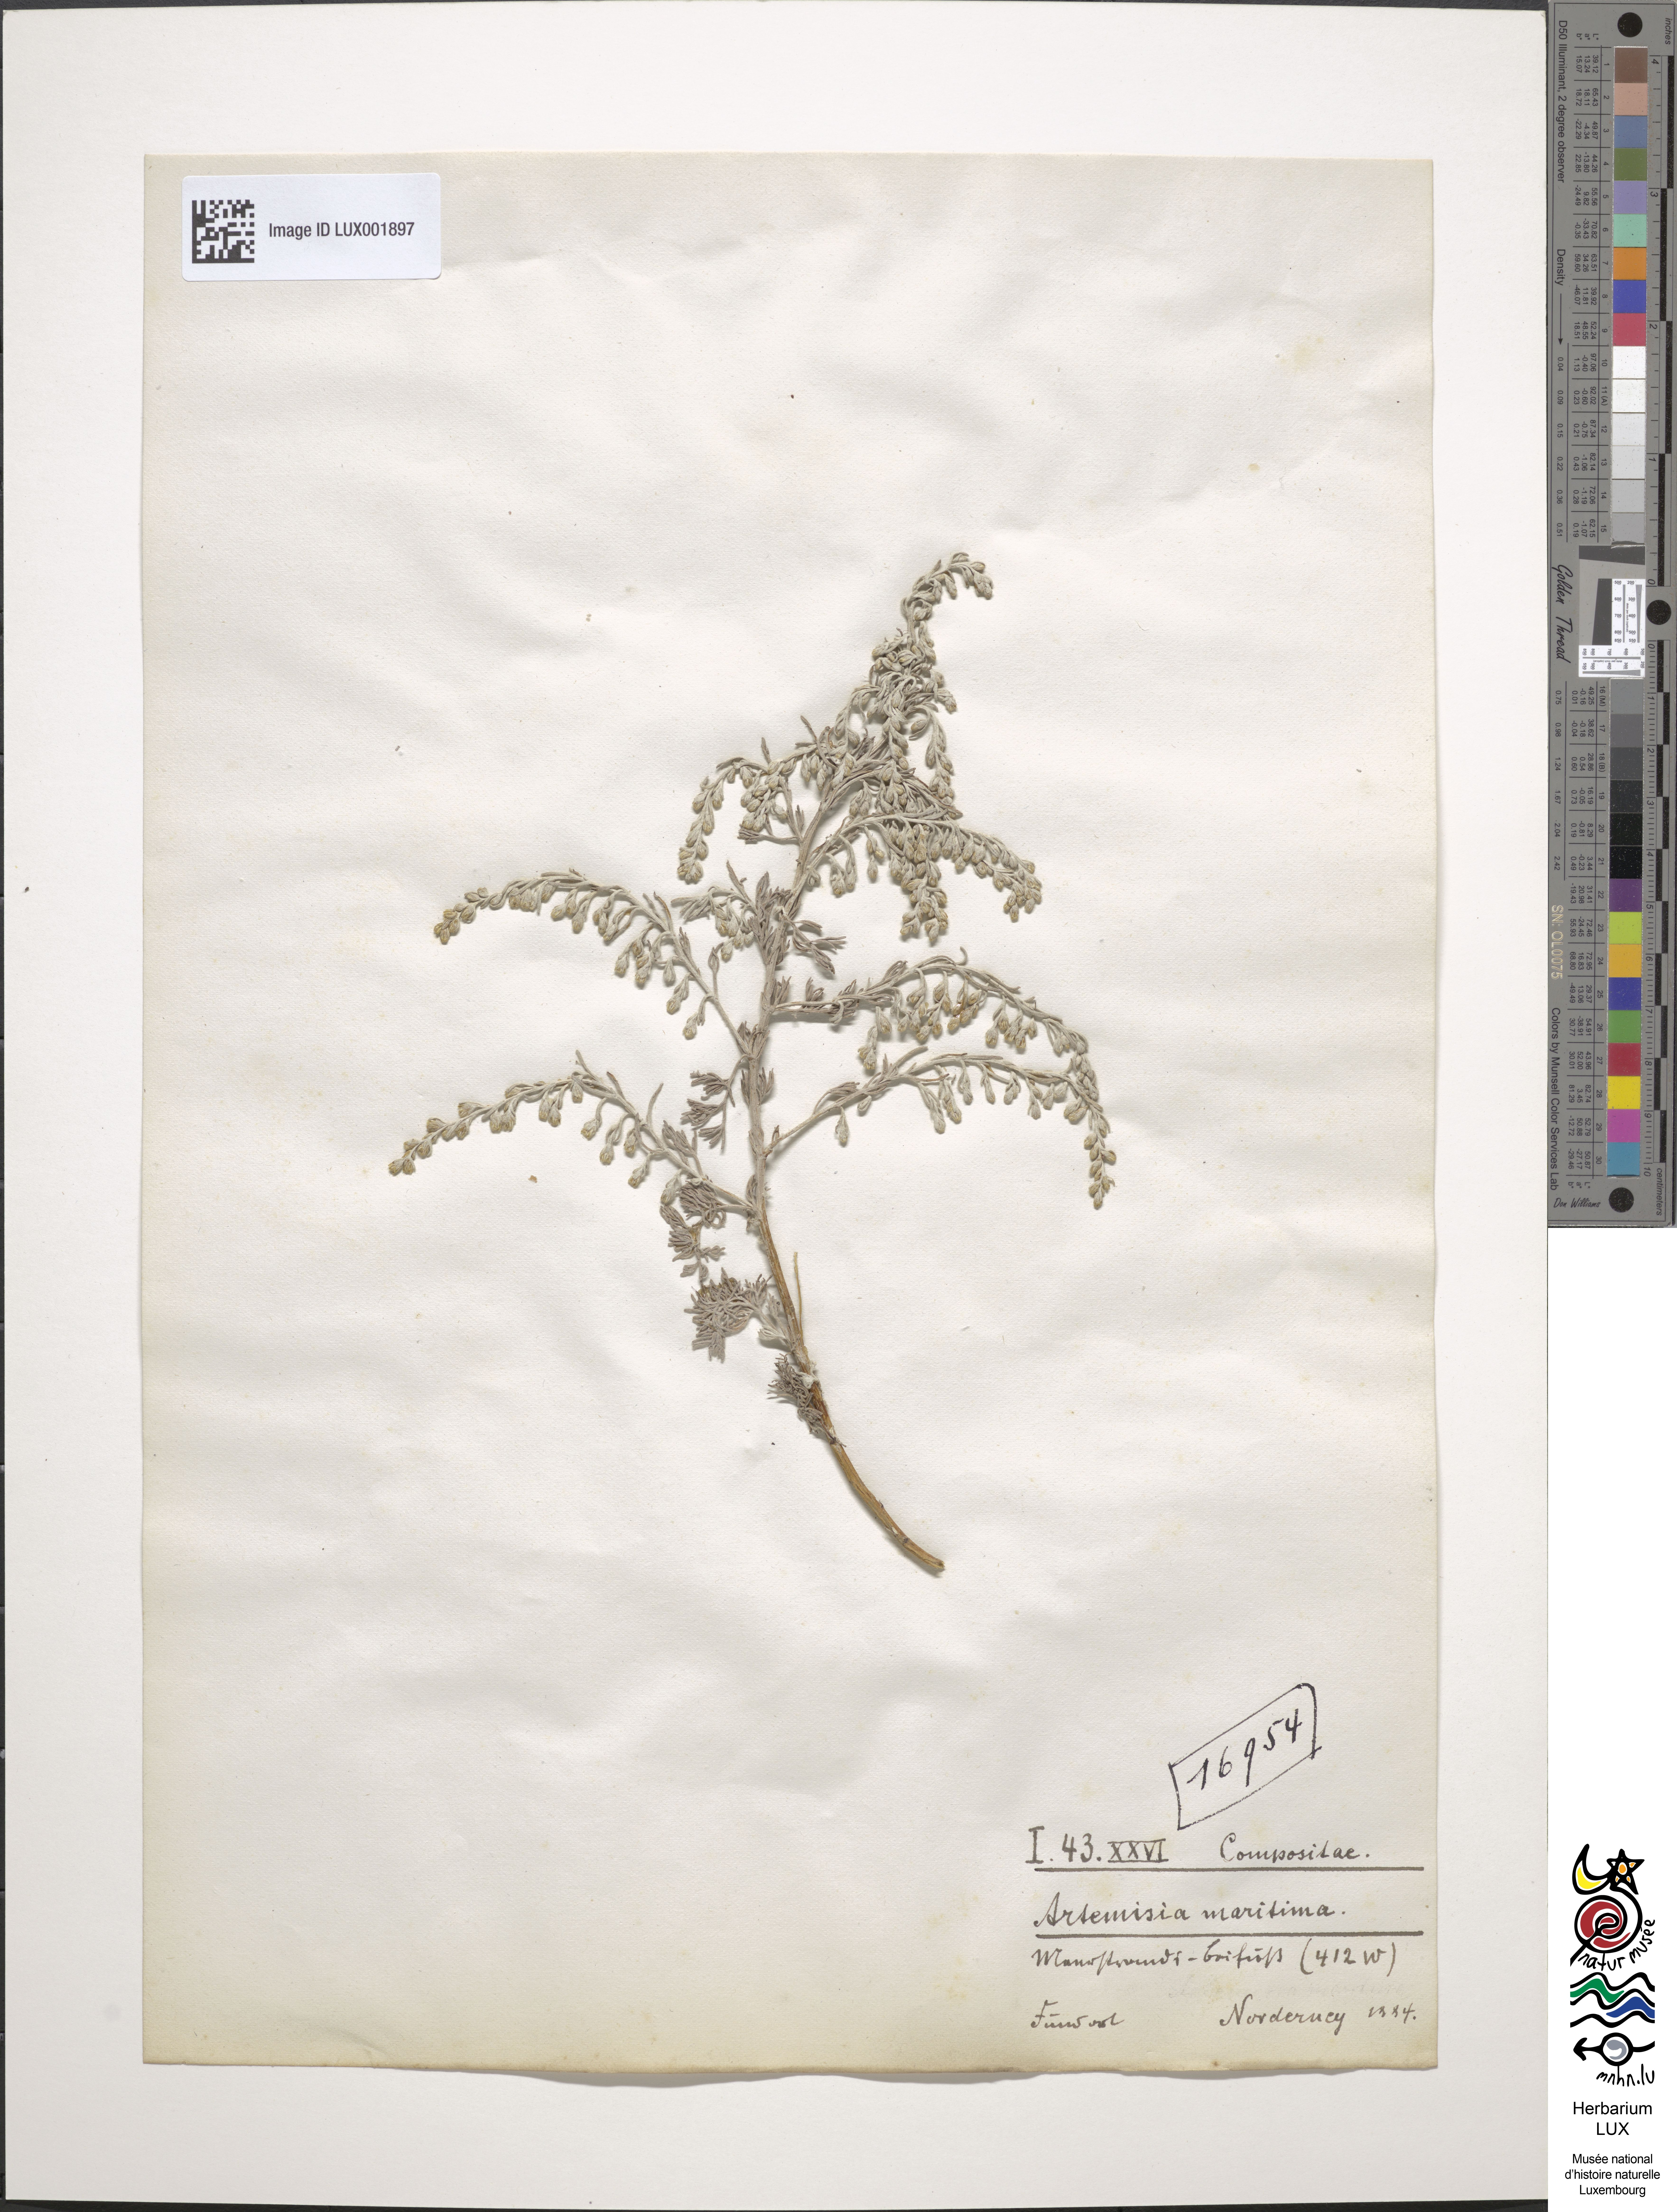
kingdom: Plantae
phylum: Tracheophyta
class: Magnoliopsida
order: Asterales
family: Asteraceae
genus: Artemisia
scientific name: Artemisia maritima
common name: Wormseed
